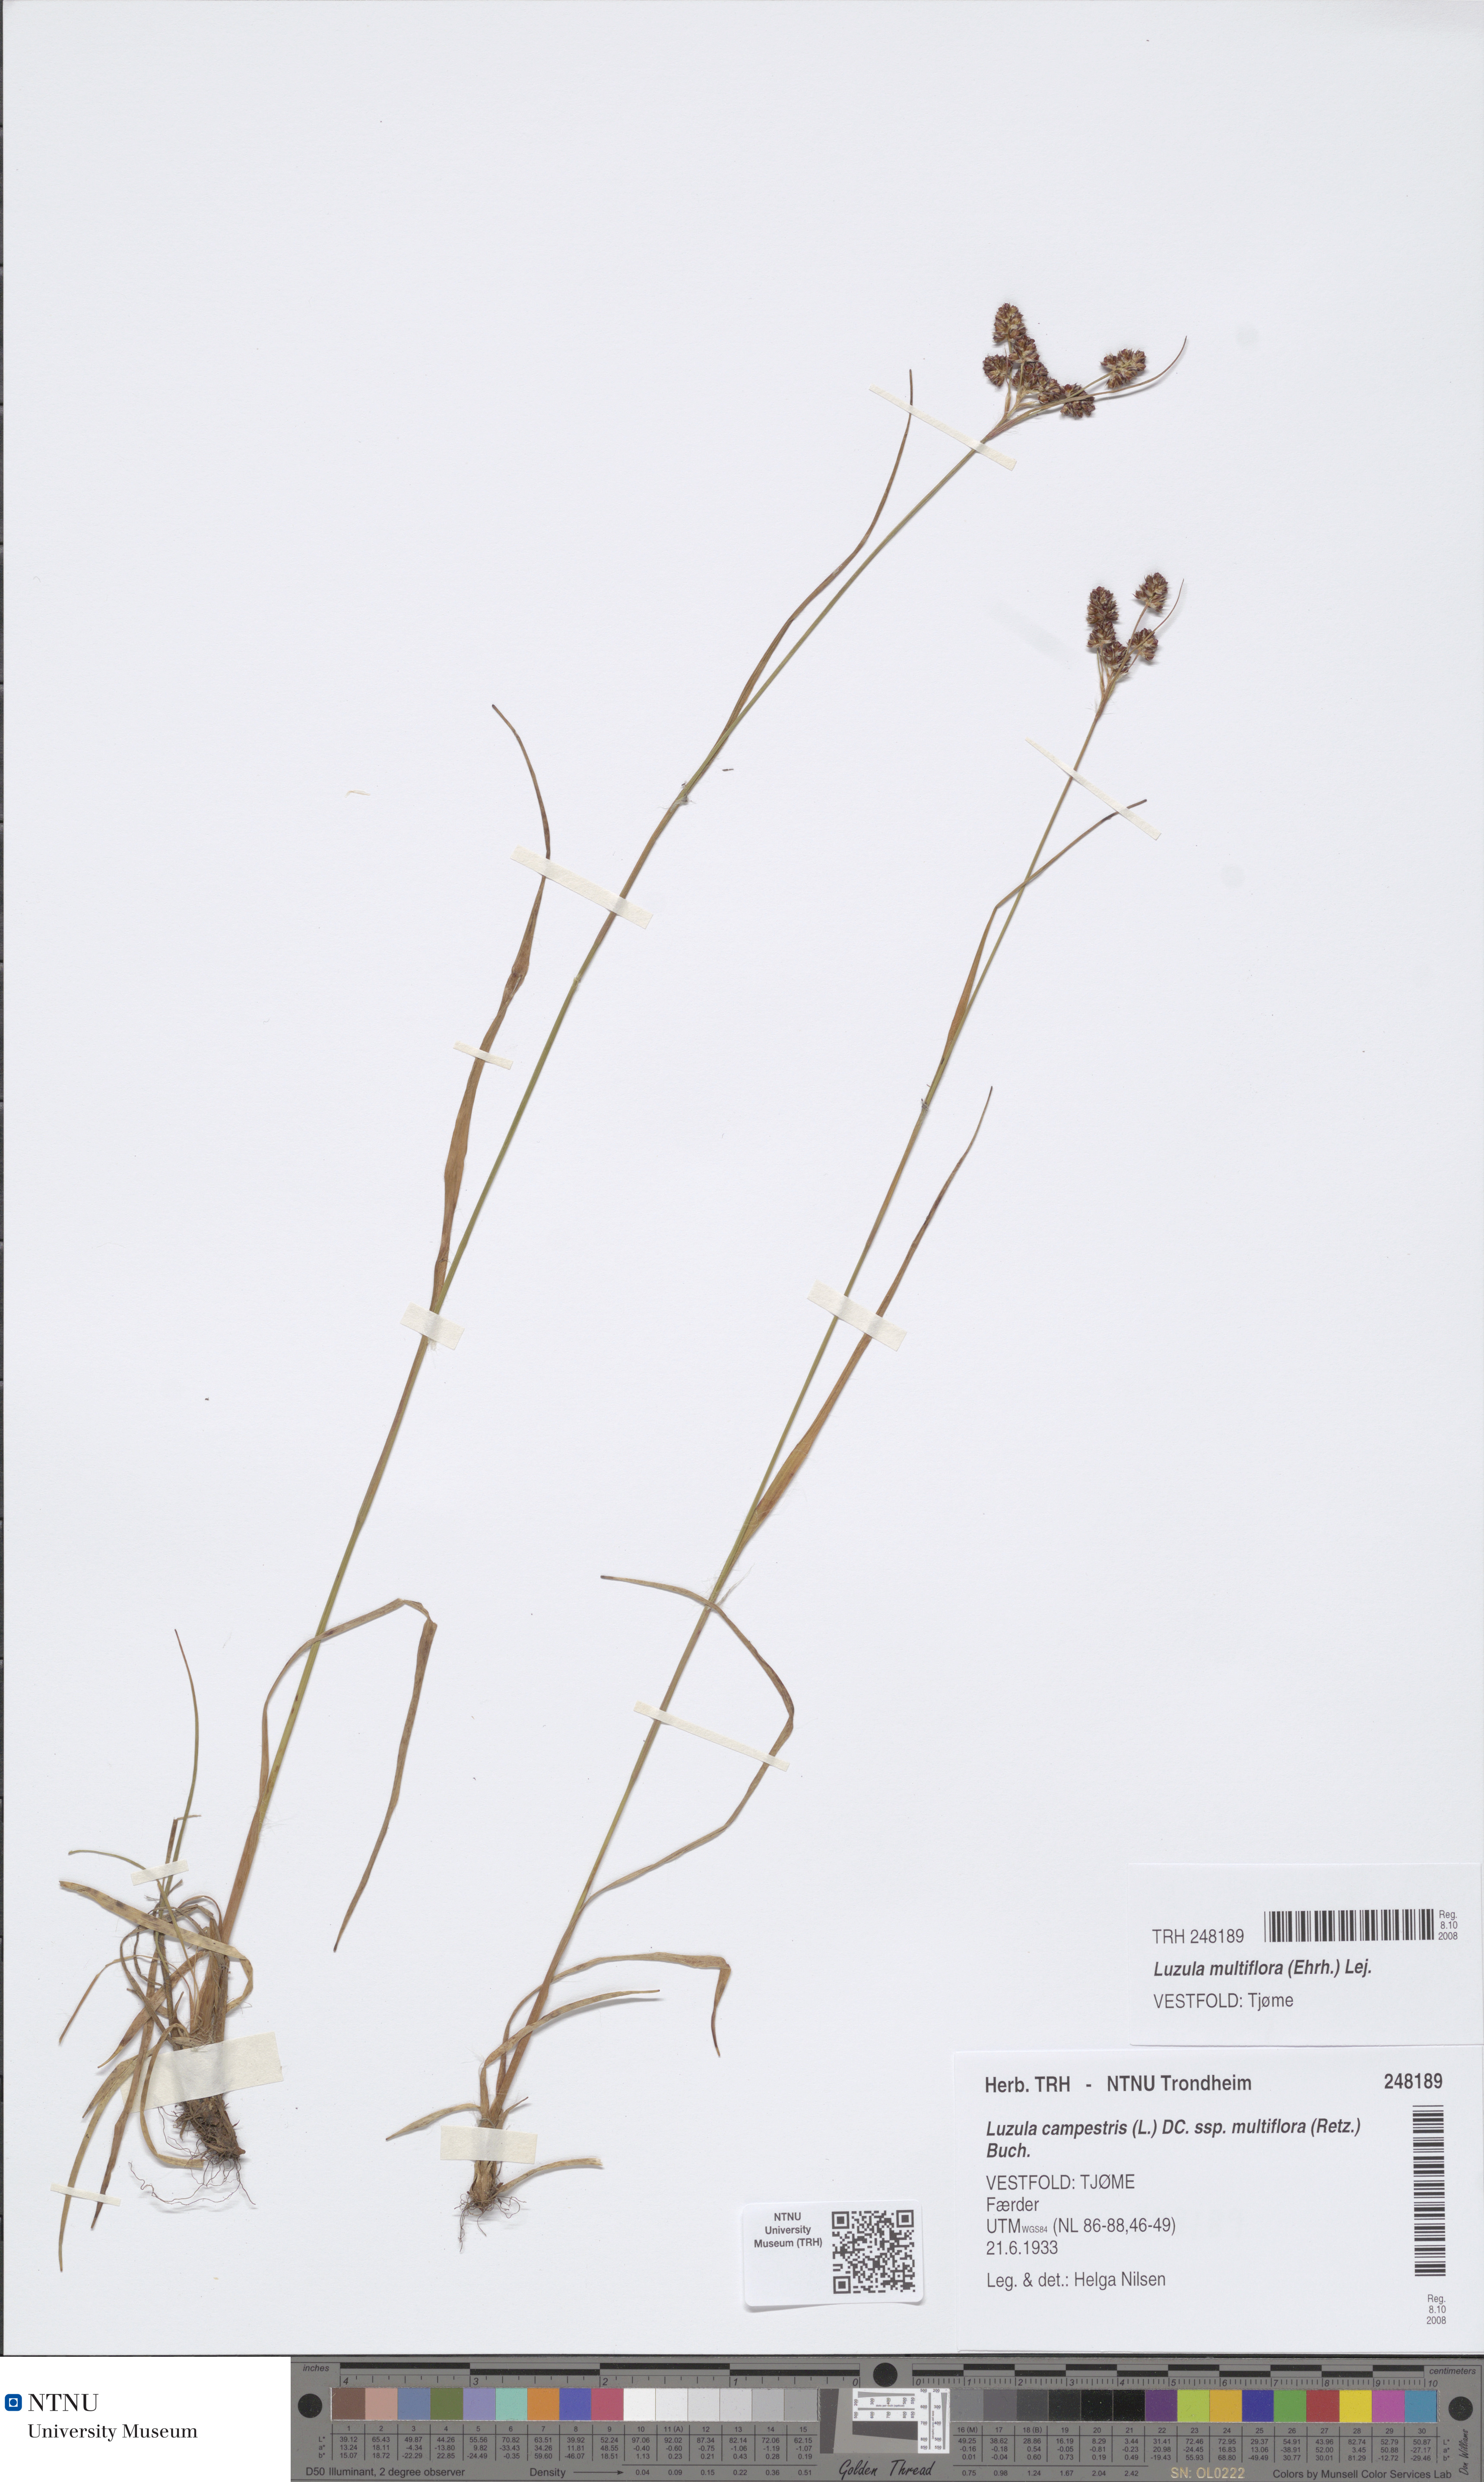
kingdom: Plantae
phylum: Tracheophyta
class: Liliopsida
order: Poales
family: Juncaceae
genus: Luzula
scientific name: Luzula multiflora
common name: Heath wood-rush
